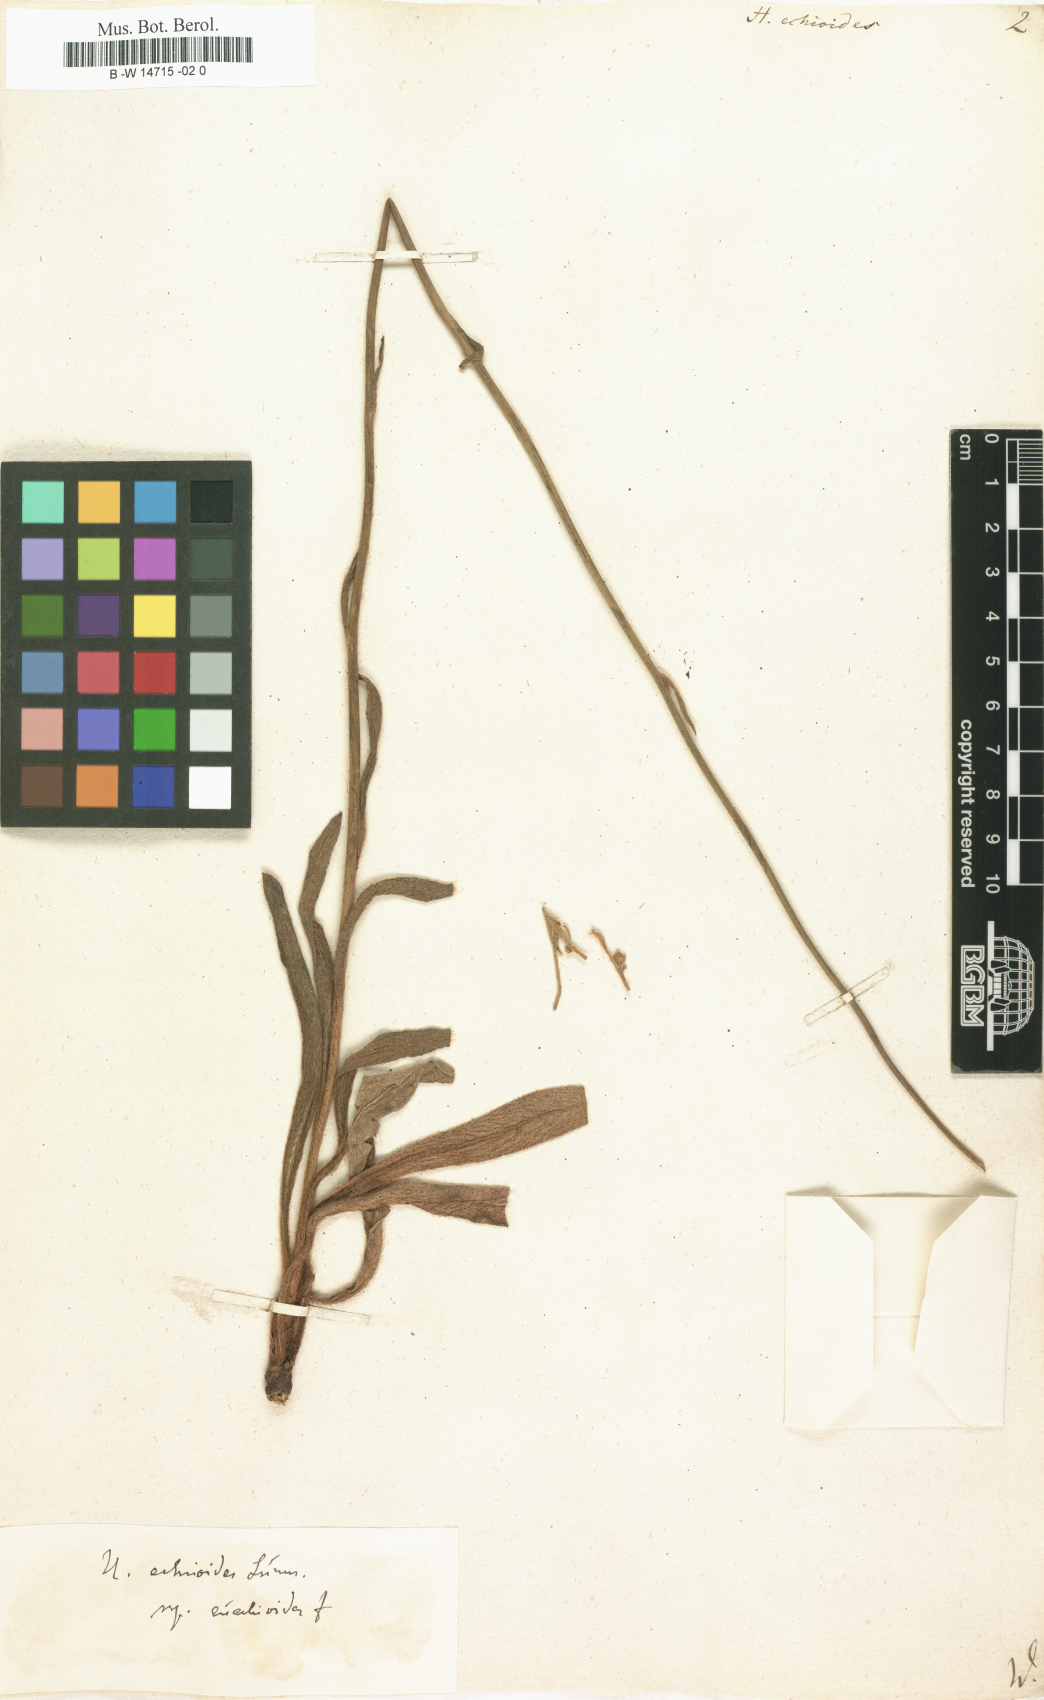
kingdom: Plantae
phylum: Tracheophyta
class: Magnoliopsida
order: Asterales
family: Asteraceae
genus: Pilosella
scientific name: Pilosella echioides
